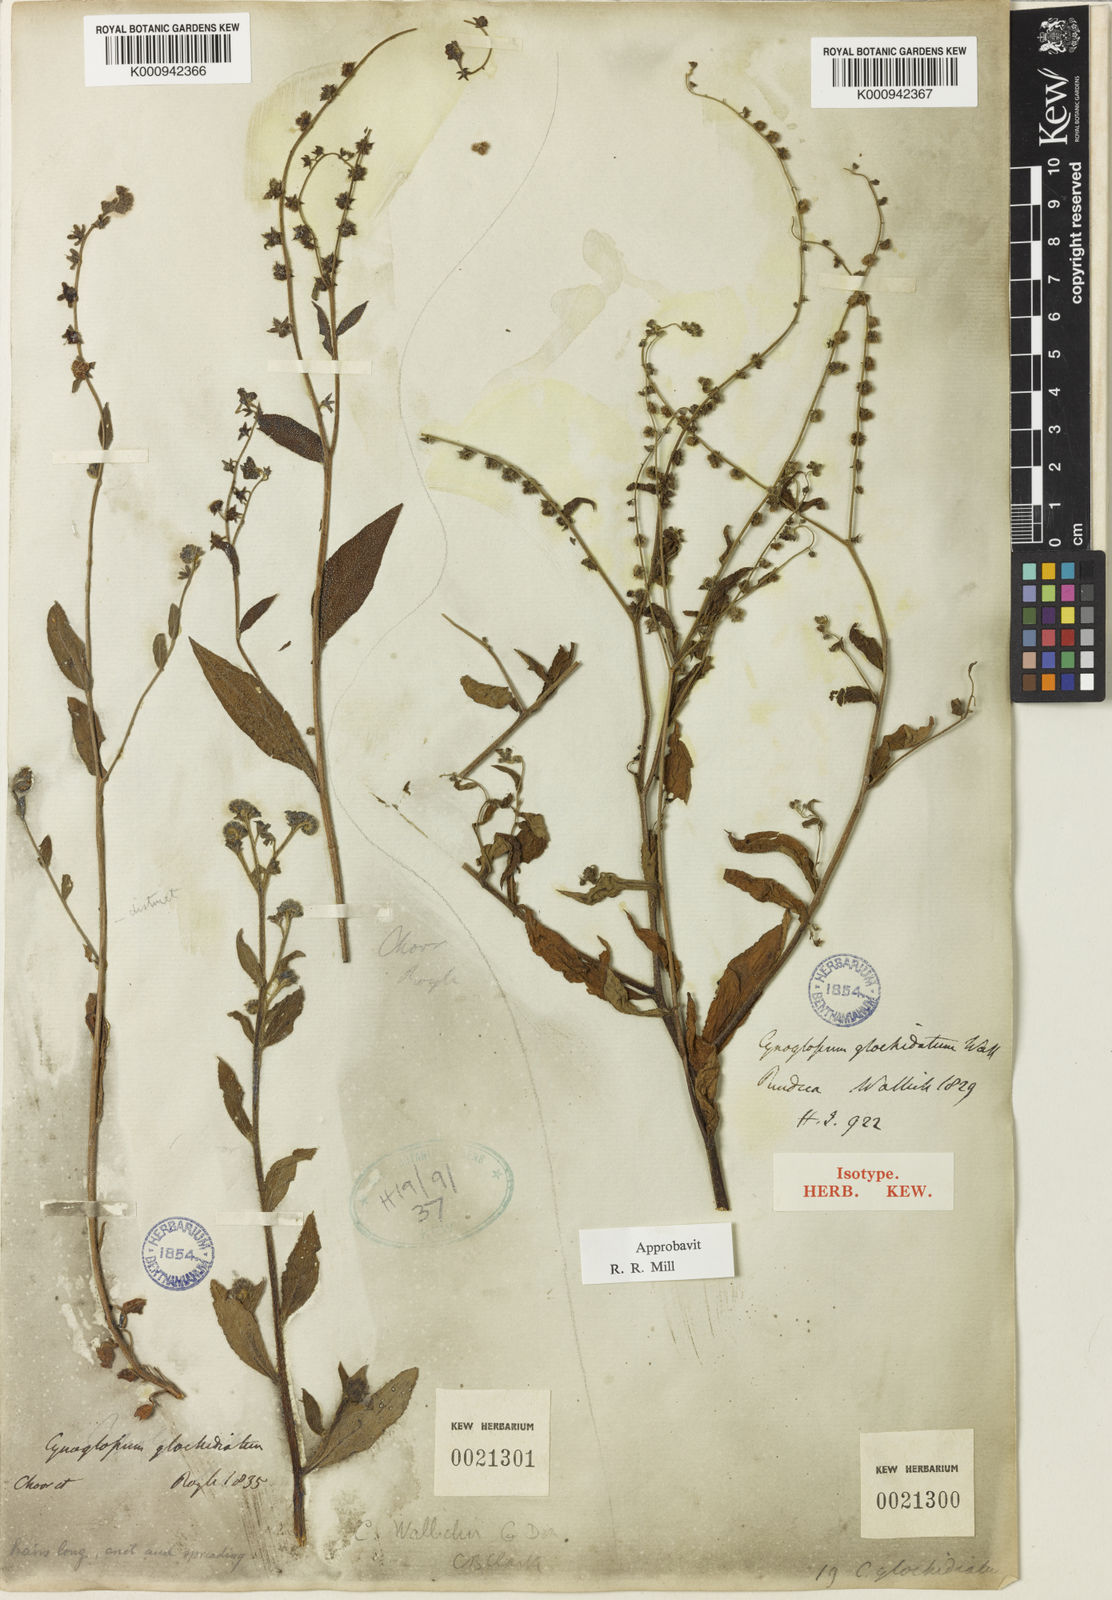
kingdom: Plantae
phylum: Tracheophyta
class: Magnoliopsida
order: Boraginales
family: Boraginaceae
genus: Cynoglossum
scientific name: Cynoglossum
